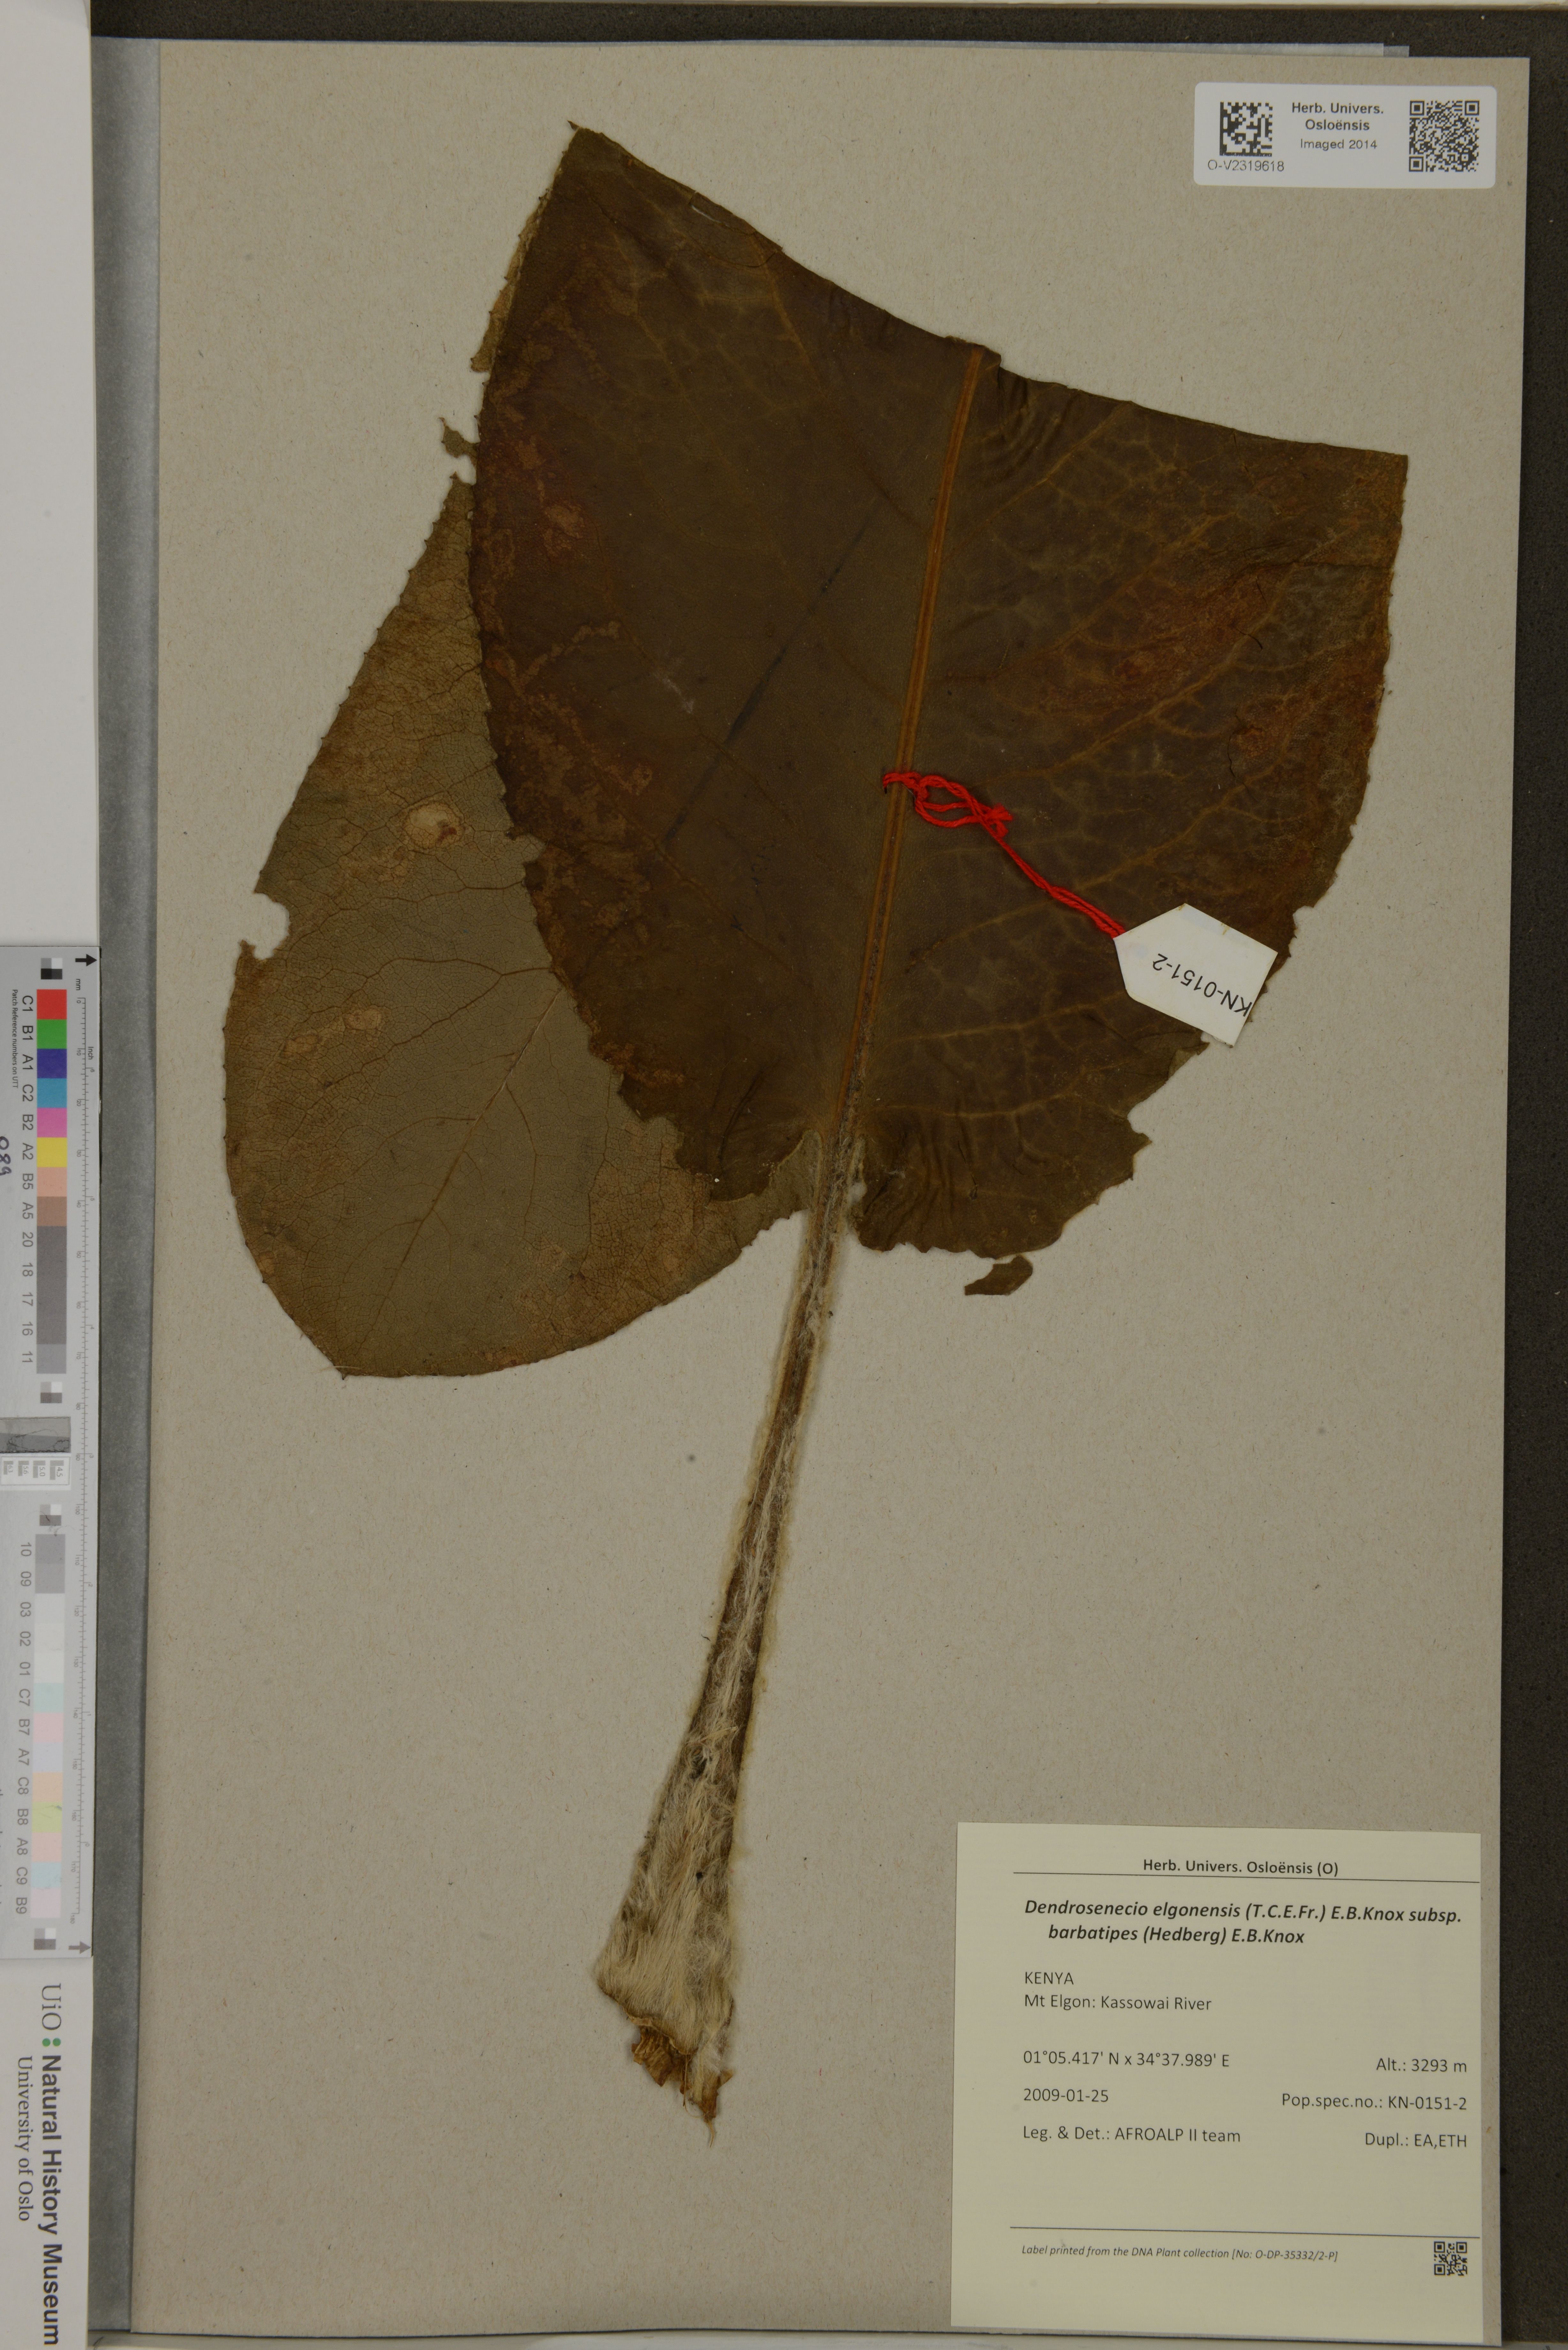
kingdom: Plantae
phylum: Tracheophyta
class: Magnoliopsida
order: Asterales
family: Asteraceae
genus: Dendrosenecio
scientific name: Dendrosenecio elgonensis
